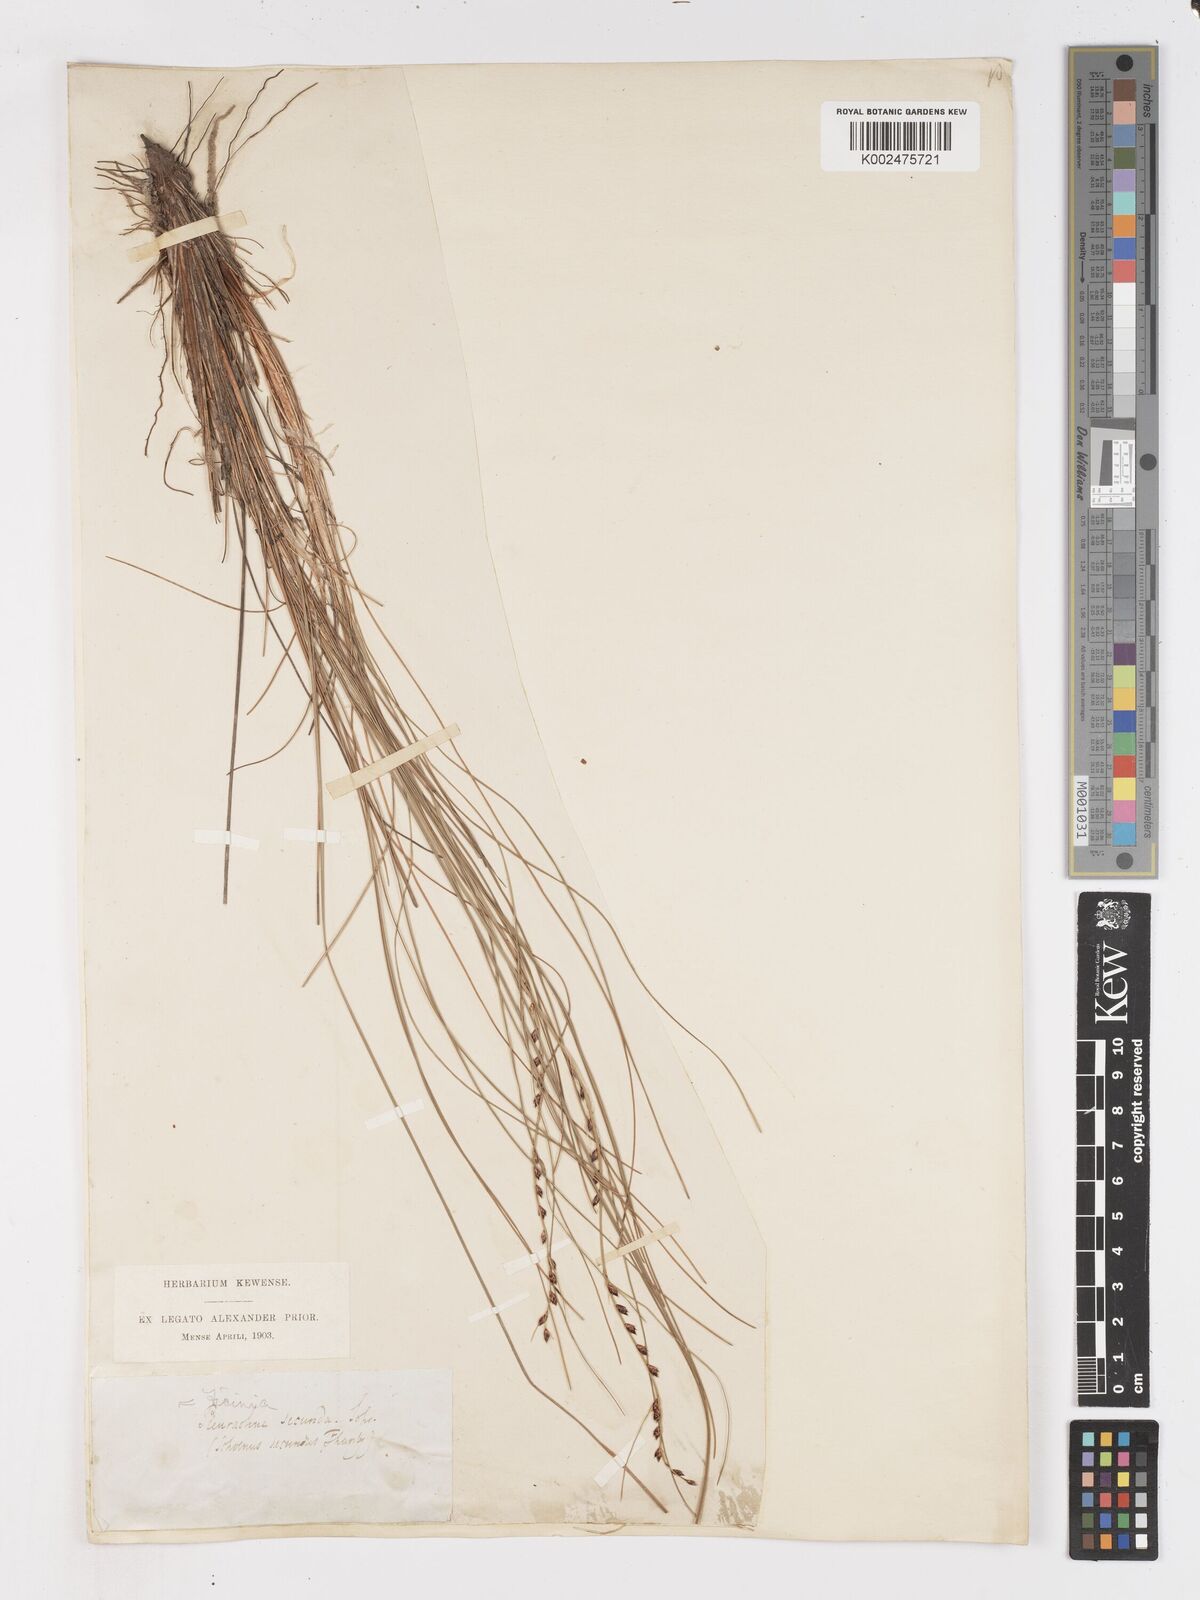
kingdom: Plantae
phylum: Tracheophyta
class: Liliopsida
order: Poales
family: Cyperaceae
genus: Ficinia
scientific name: Ficinia secunda
